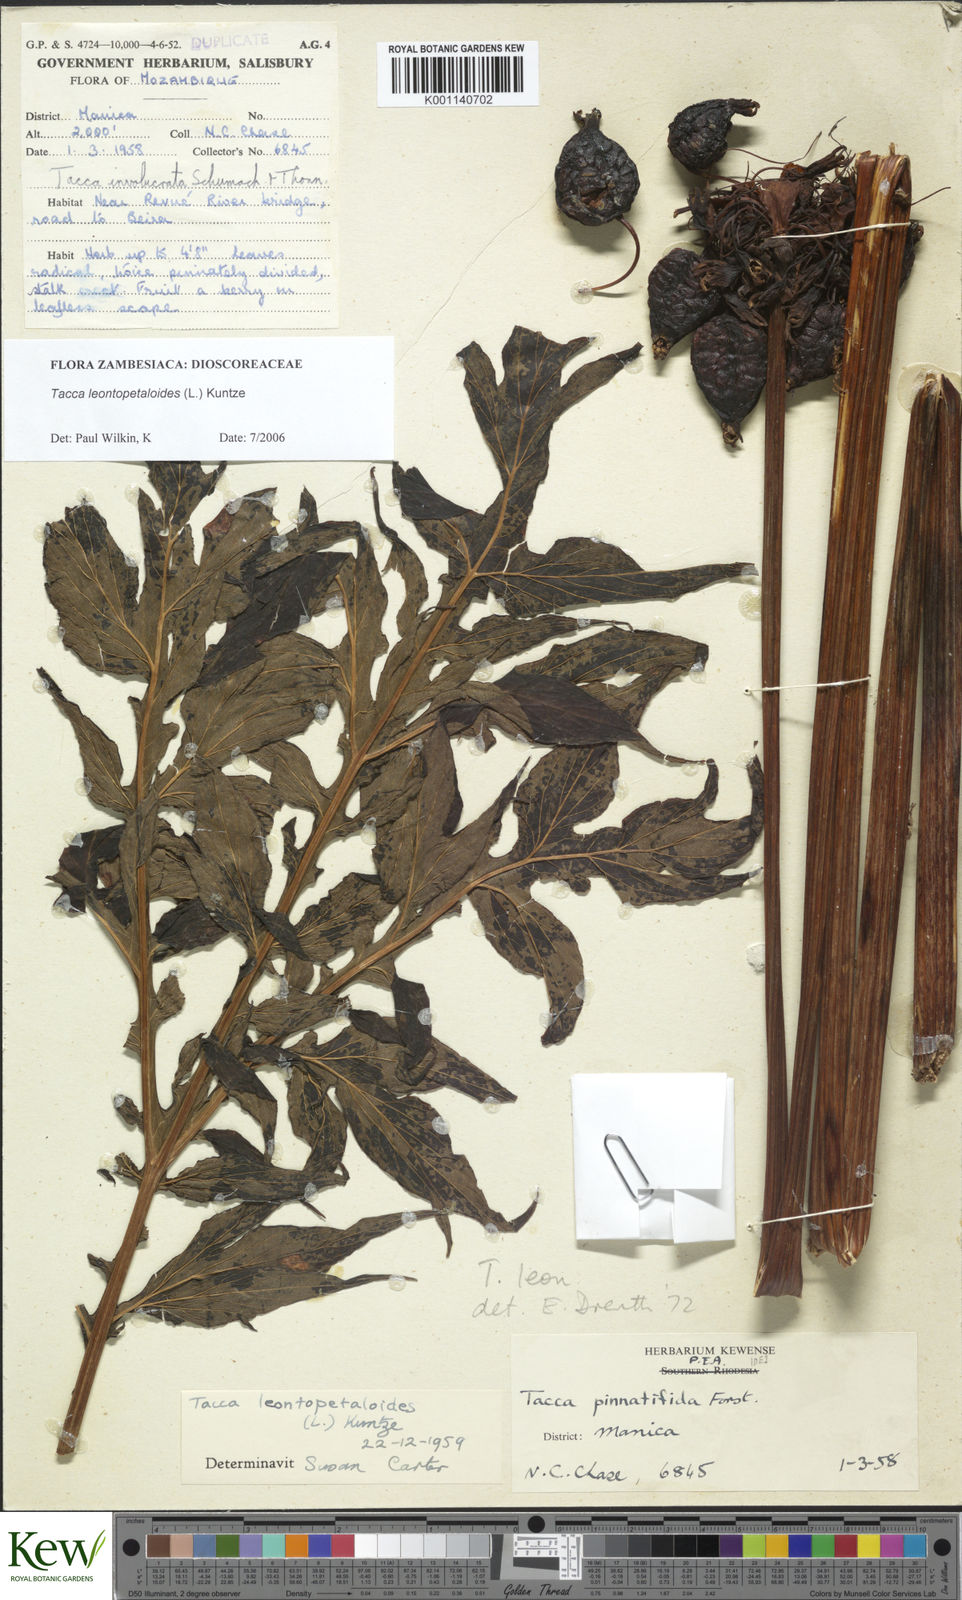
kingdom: Plantae
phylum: Tracheophyta
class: Liliopsida
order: Dioscoreales
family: Dioscoreaceae
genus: Tacca
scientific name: Tacca leontopetaloides
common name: Arrowroot
